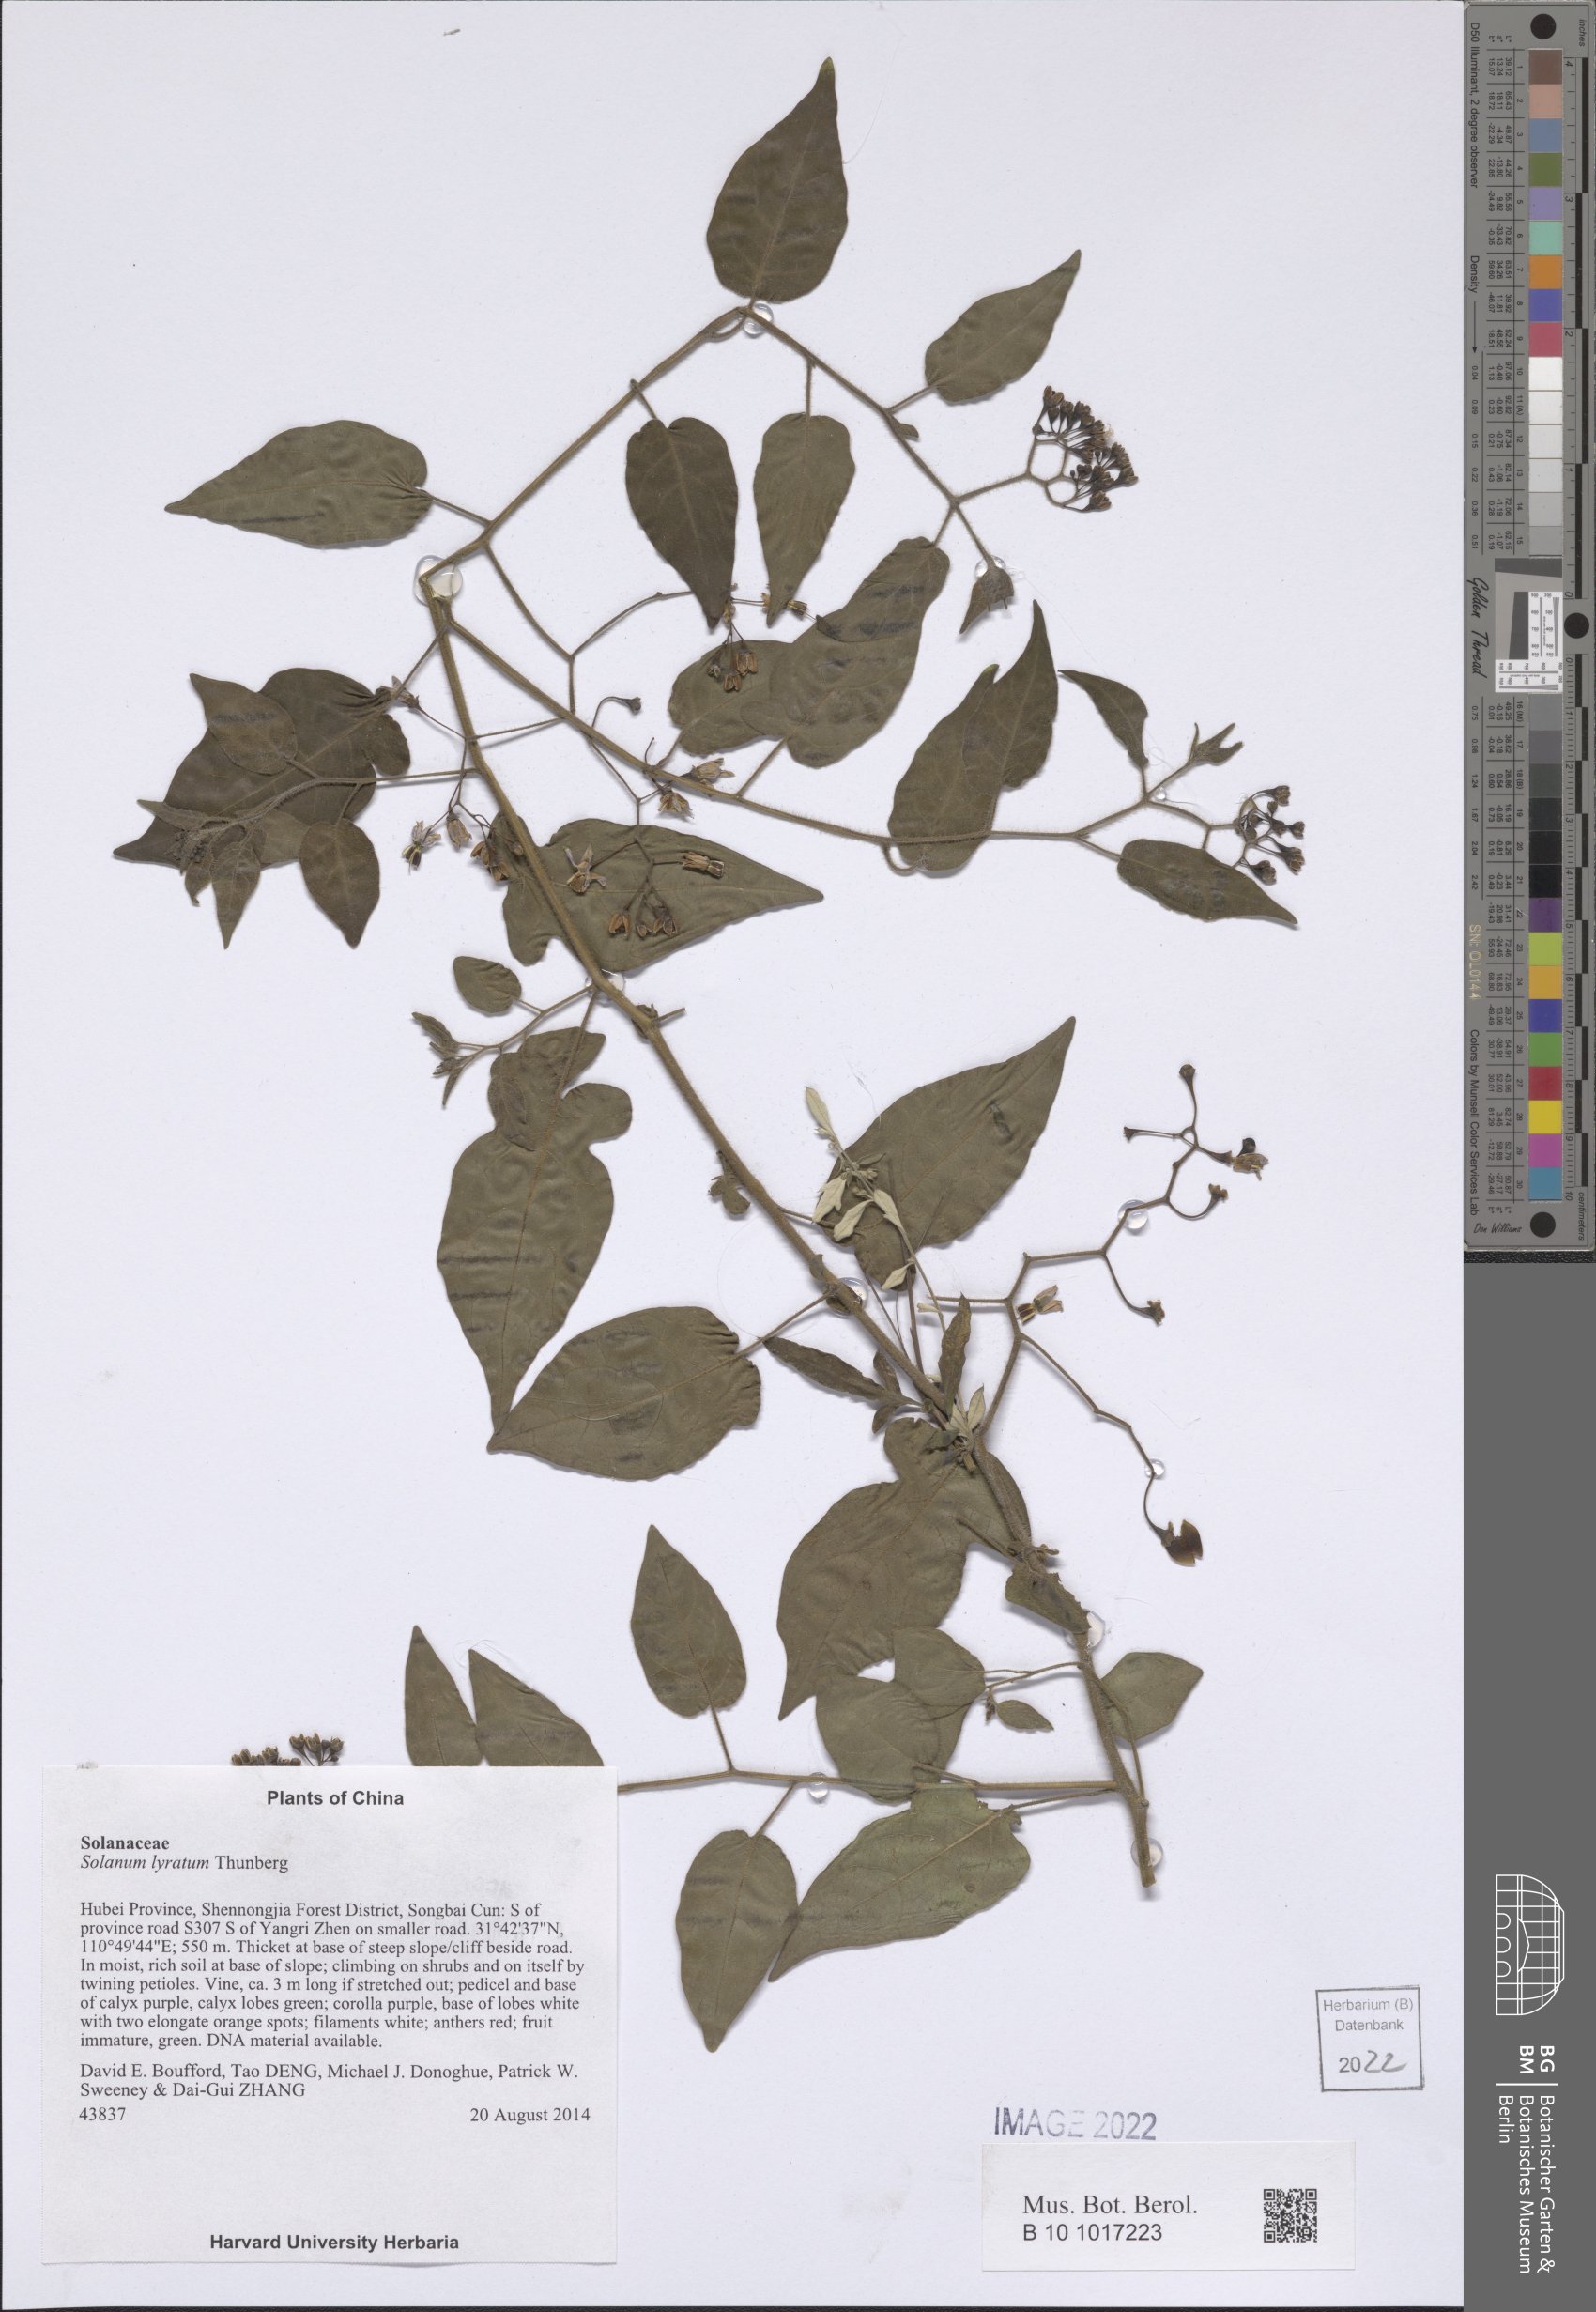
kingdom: Plantae
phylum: Tracheophyta
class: Magnoliopsida
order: Solanales
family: Solanaceae
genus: Solanum
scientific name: Solanum lyratum
